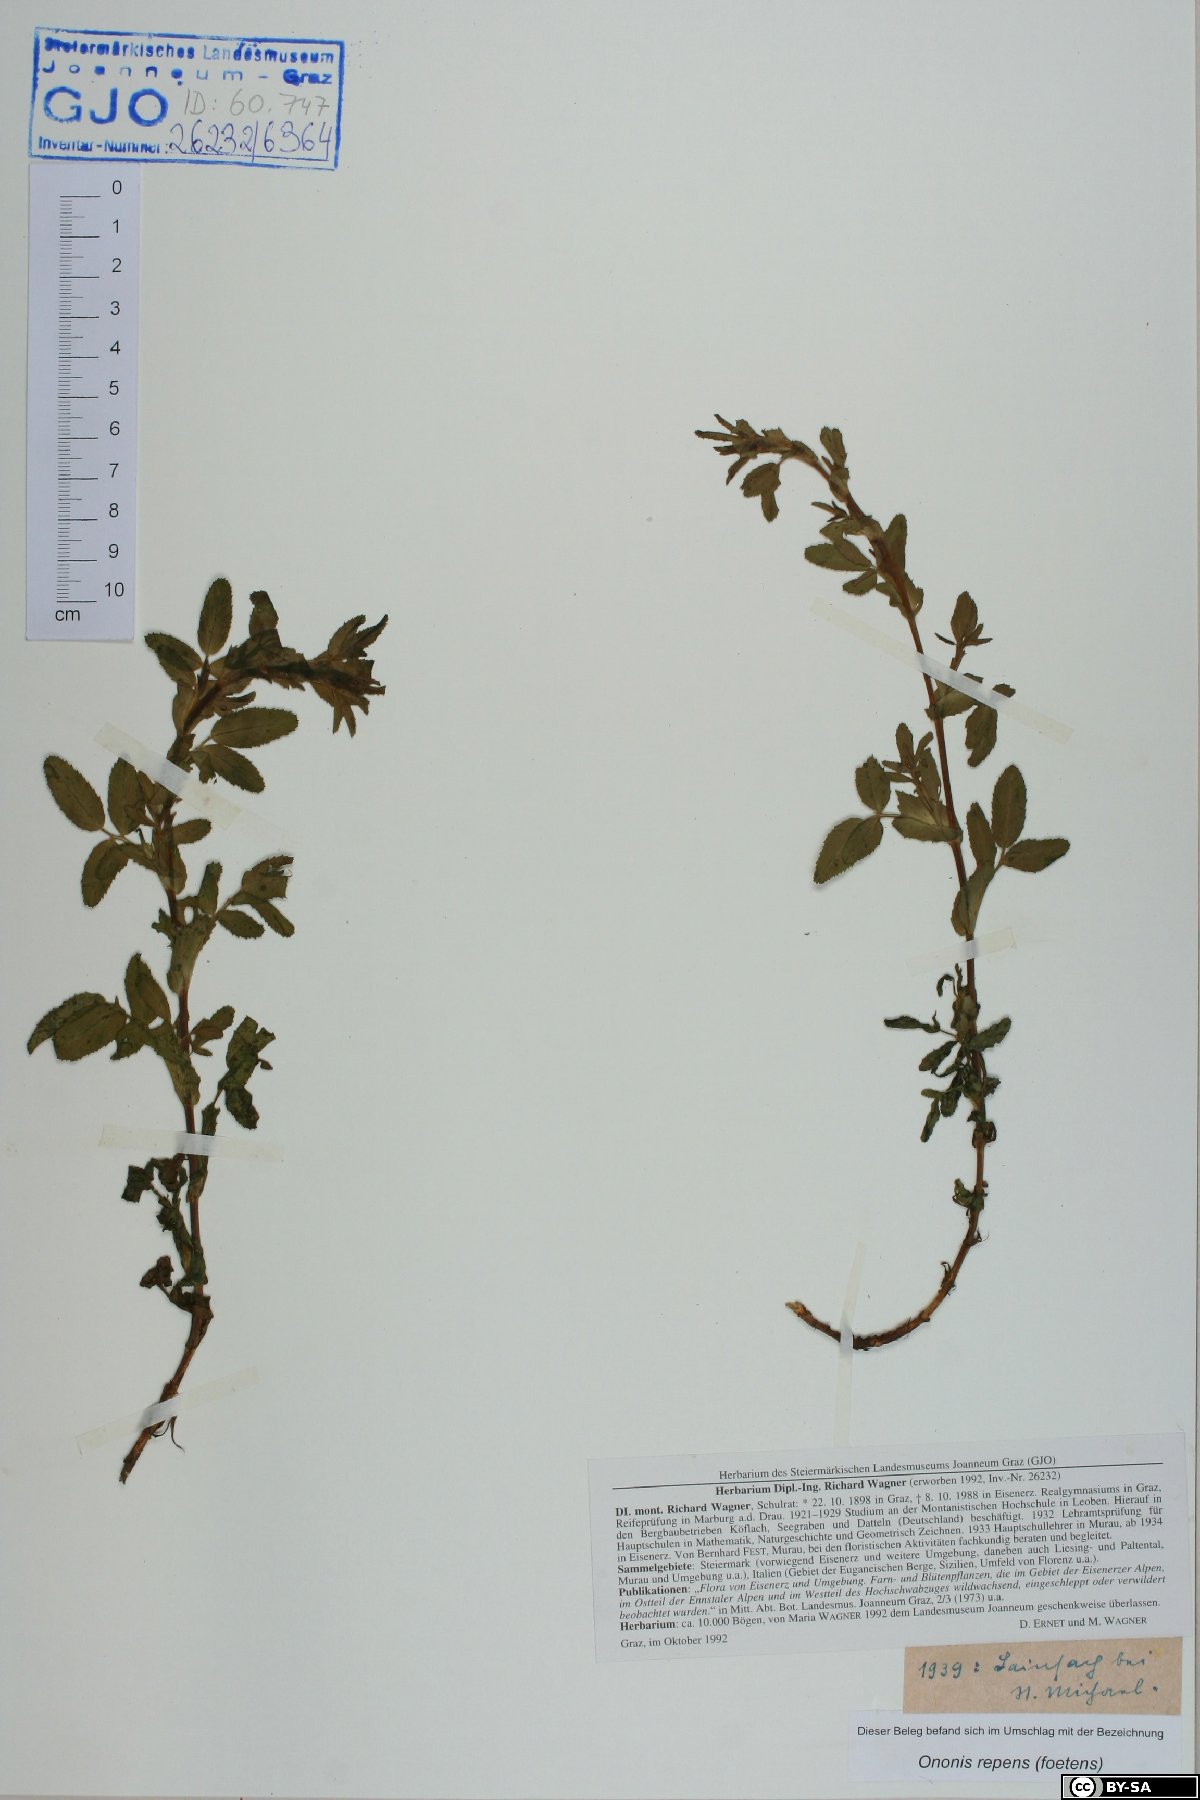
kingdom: Plantae
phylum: Tracheophyta
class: Magnoliopsida
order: Fabales
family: Fabaceae
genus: Ononis
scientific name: Ononis spinosa
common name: Spiny restharrow
